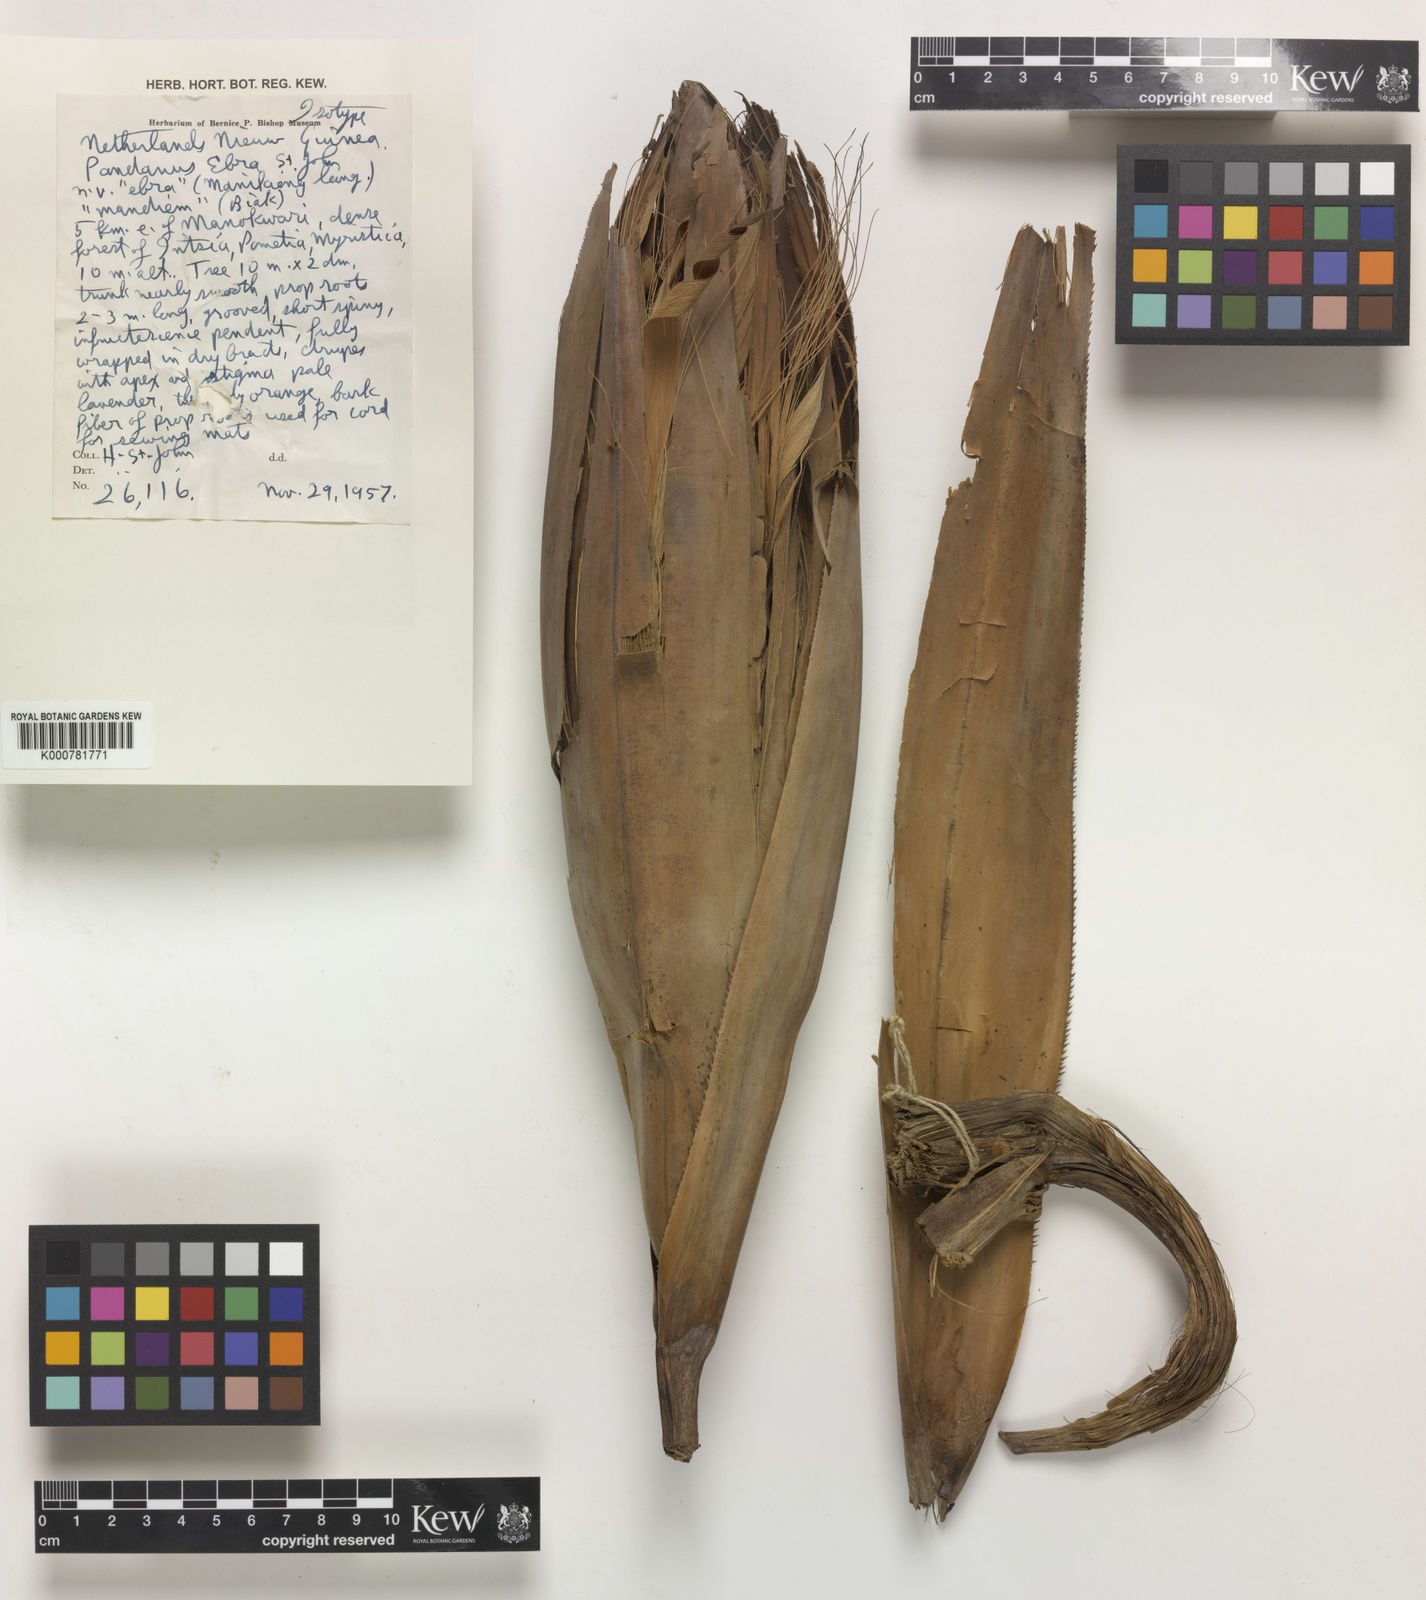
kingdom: Plantae
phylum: Tracheophyta
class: Liliopsida
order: Pandanales
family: Pandanaceae
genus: Pandanus
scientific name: Pandanus
